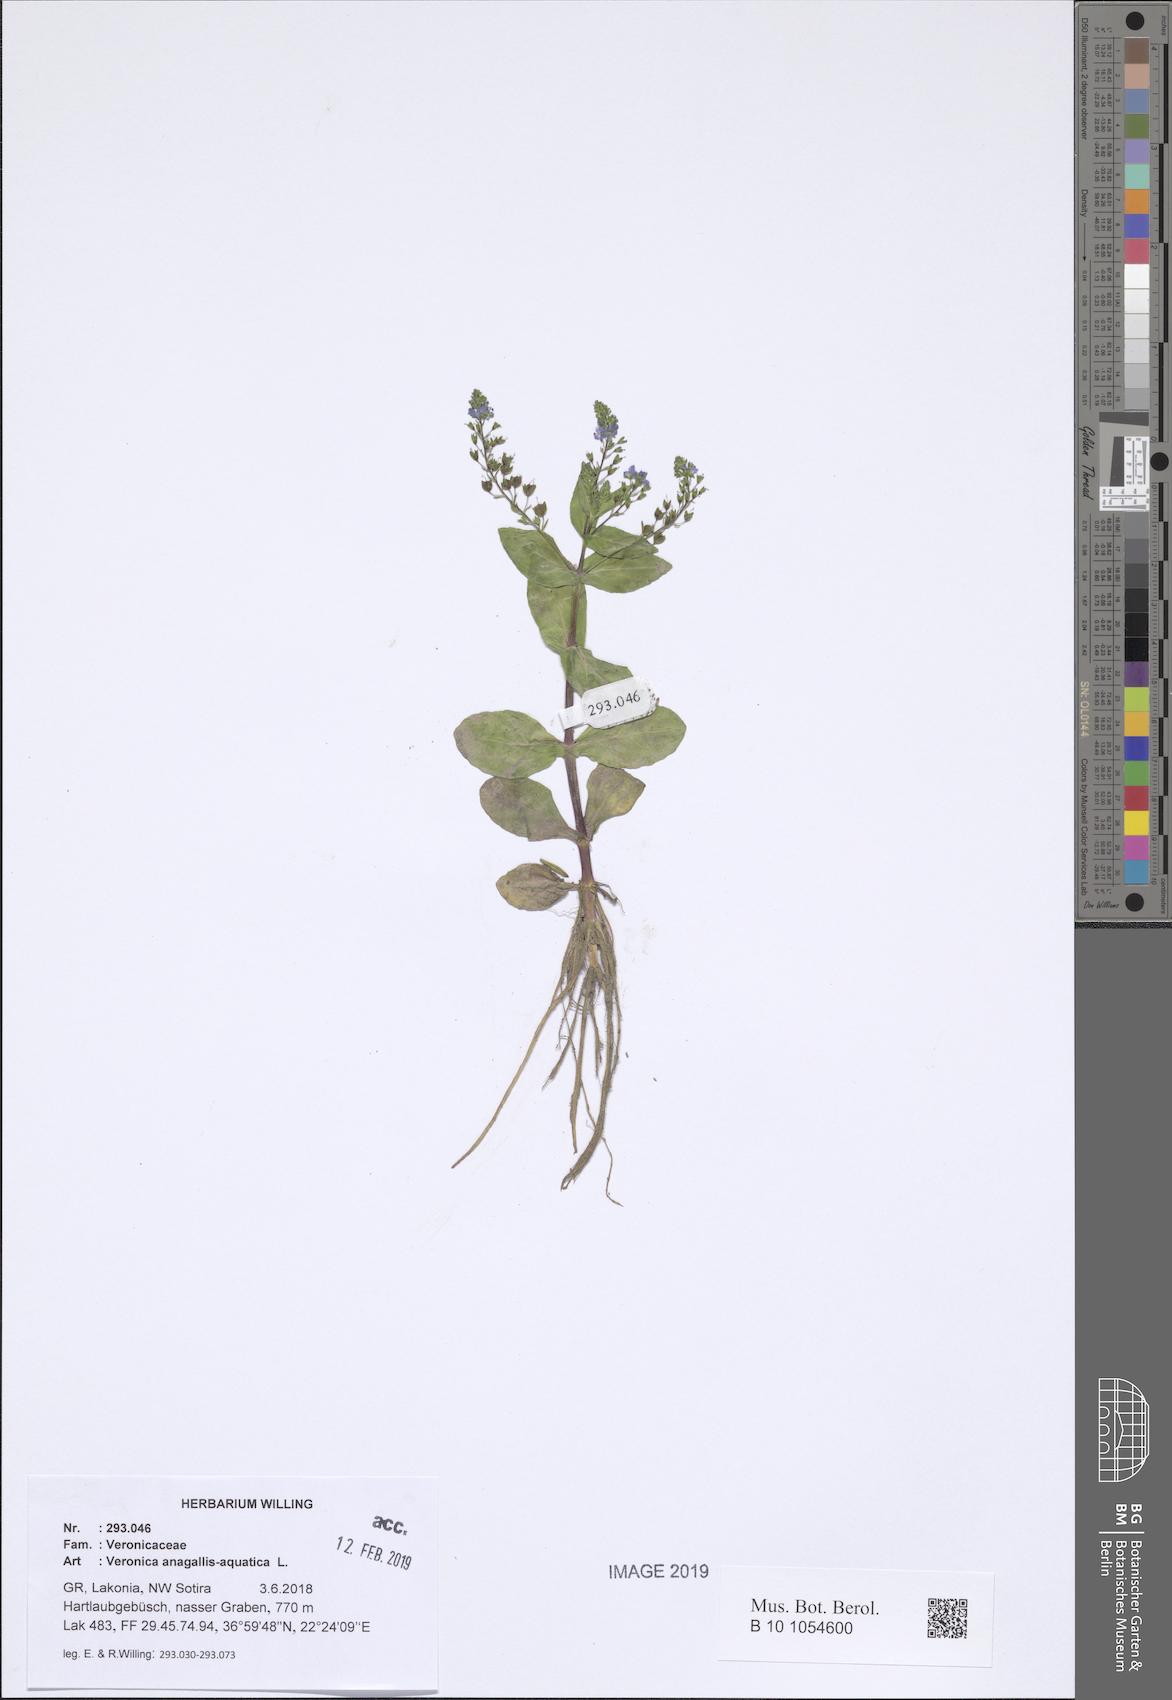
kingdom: Plantae
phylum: Tracheophyta
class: Magnoliopsida
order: Lamiales
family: Plantaginaceae
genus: Veronica
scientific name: Veronica anagallis-aquatica
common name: Water speedwell
